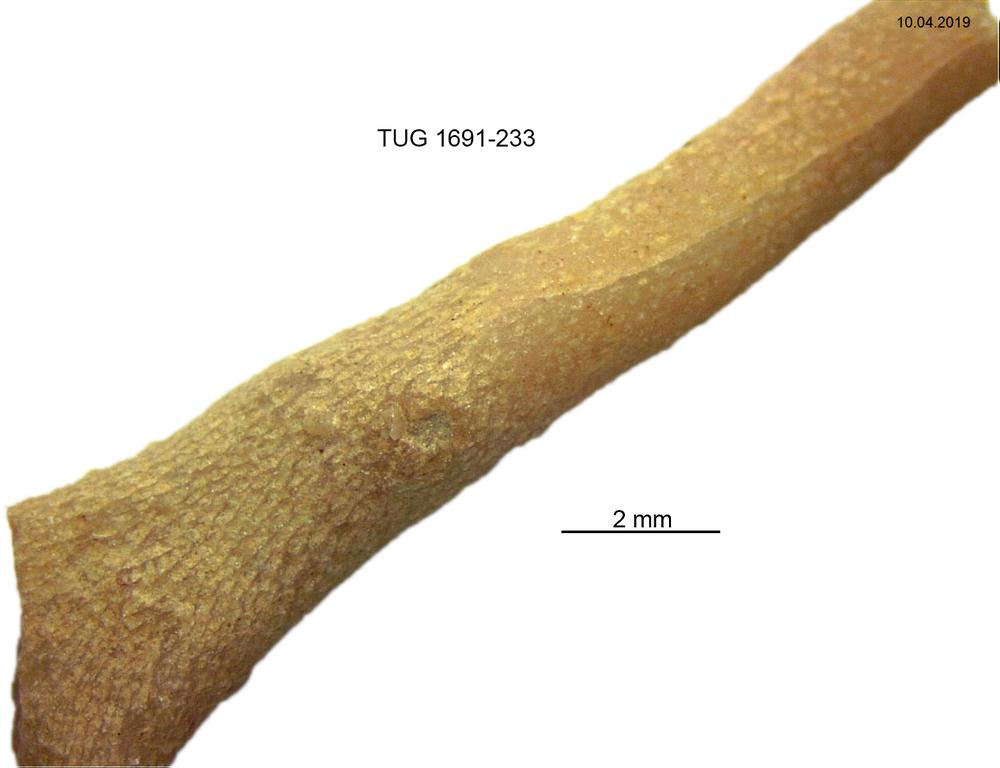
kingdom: Animalia
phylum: Bryozoa
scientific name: Bryozoa
